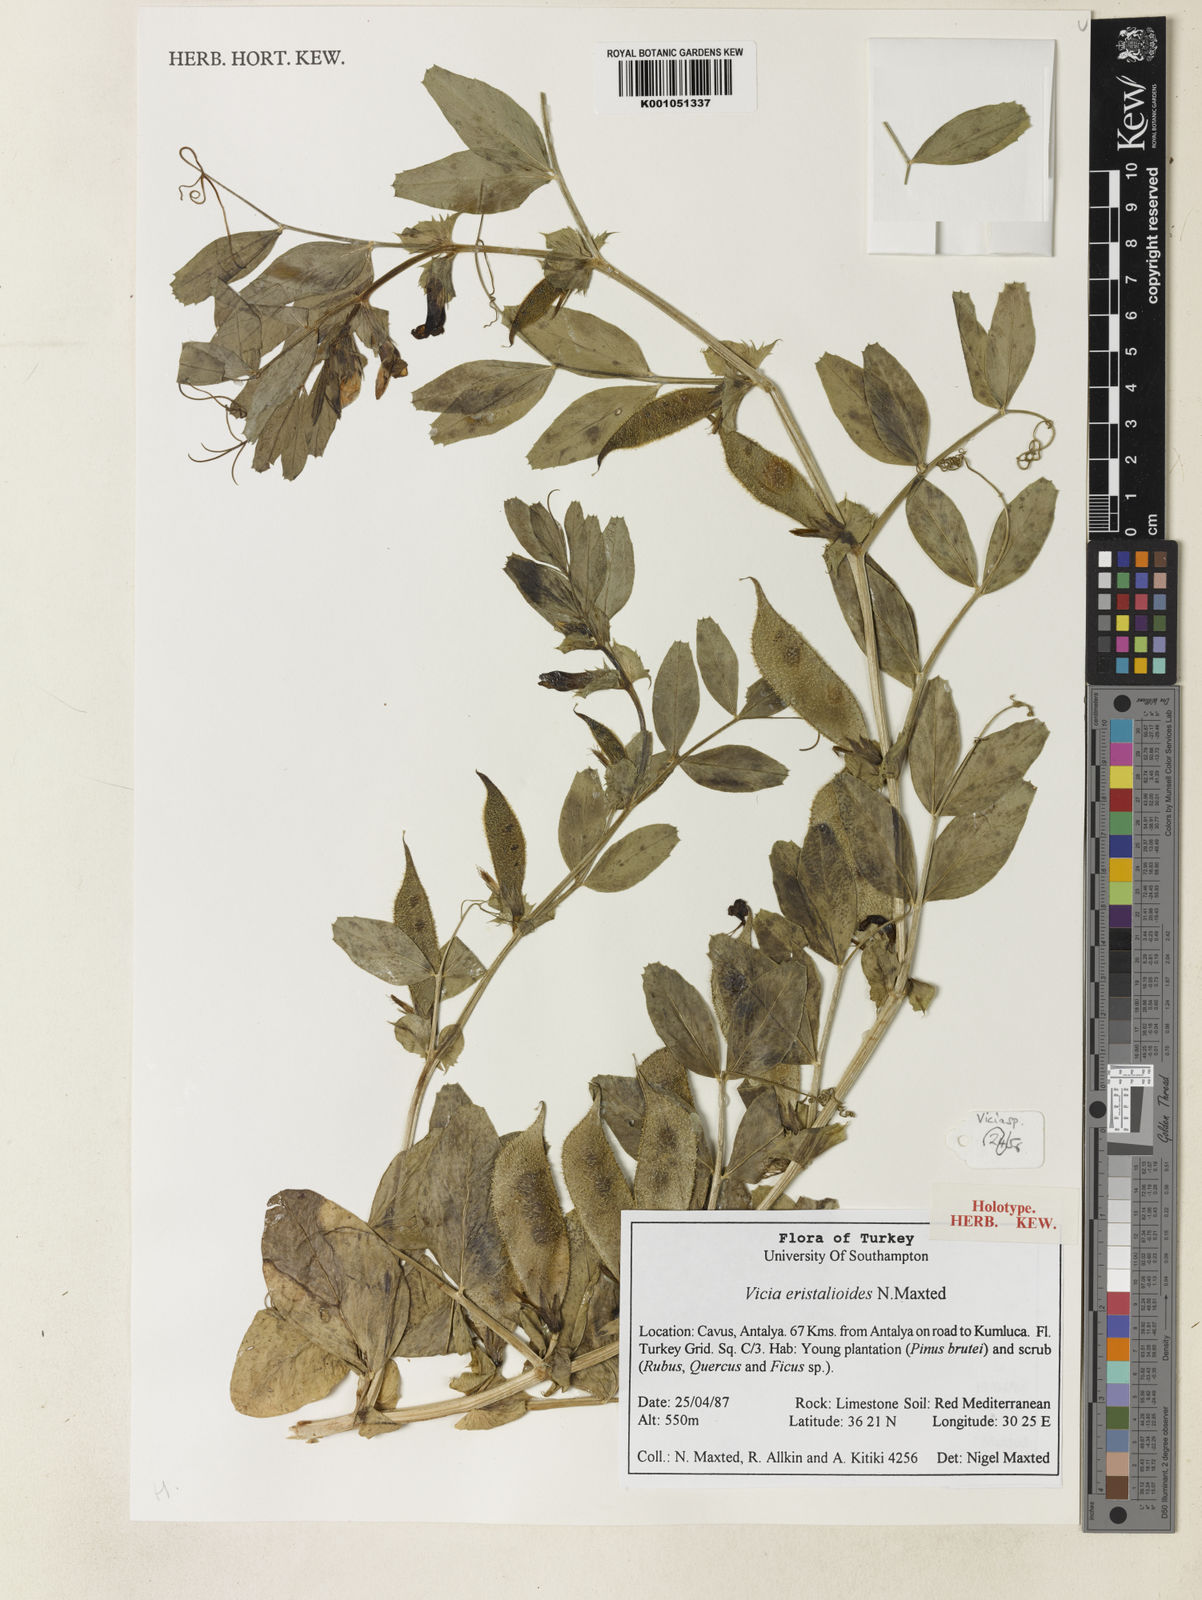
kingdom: Plantae
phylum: Tracheophyta
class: Magnoliopsida
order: Fabales
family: Fabaceae
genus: Vicia
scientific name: Vicia eristalioides
